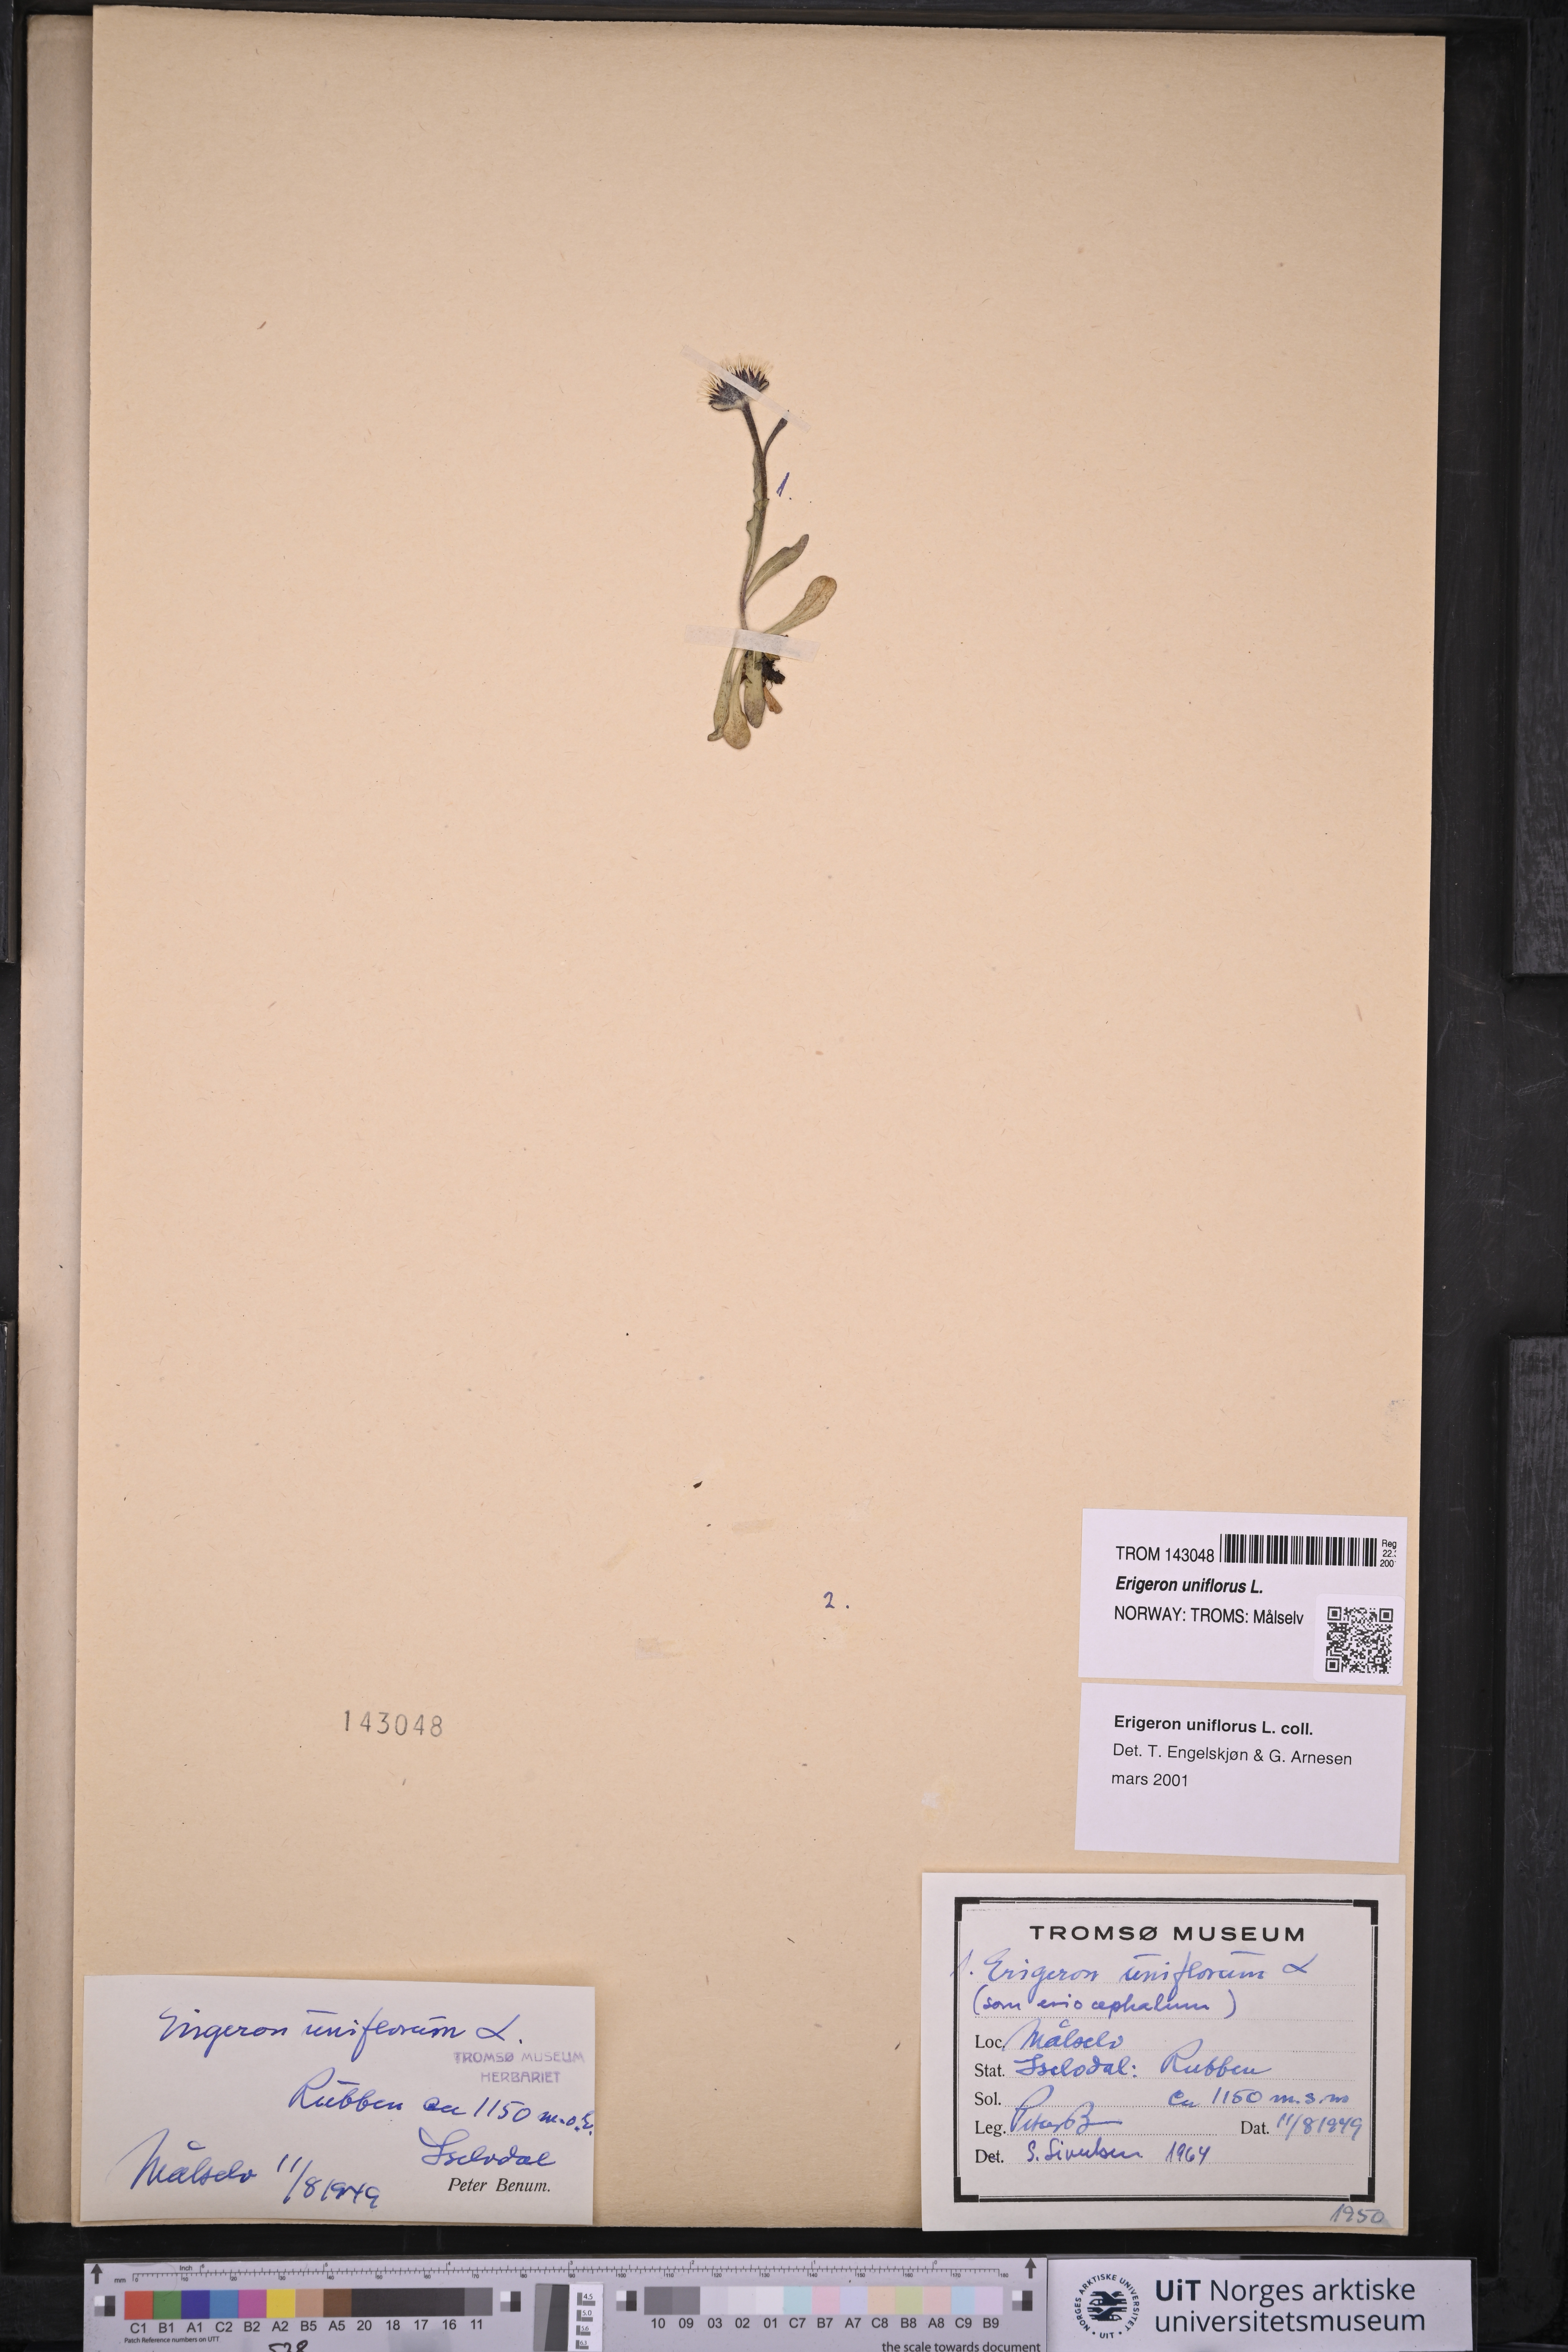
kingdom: Plantae
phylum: Tracheophyta
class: Magnoliopsida
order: Asterales
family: Asteraceae
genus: Erigeron
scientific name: Erigeron uniflorus
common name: Northern daisy
